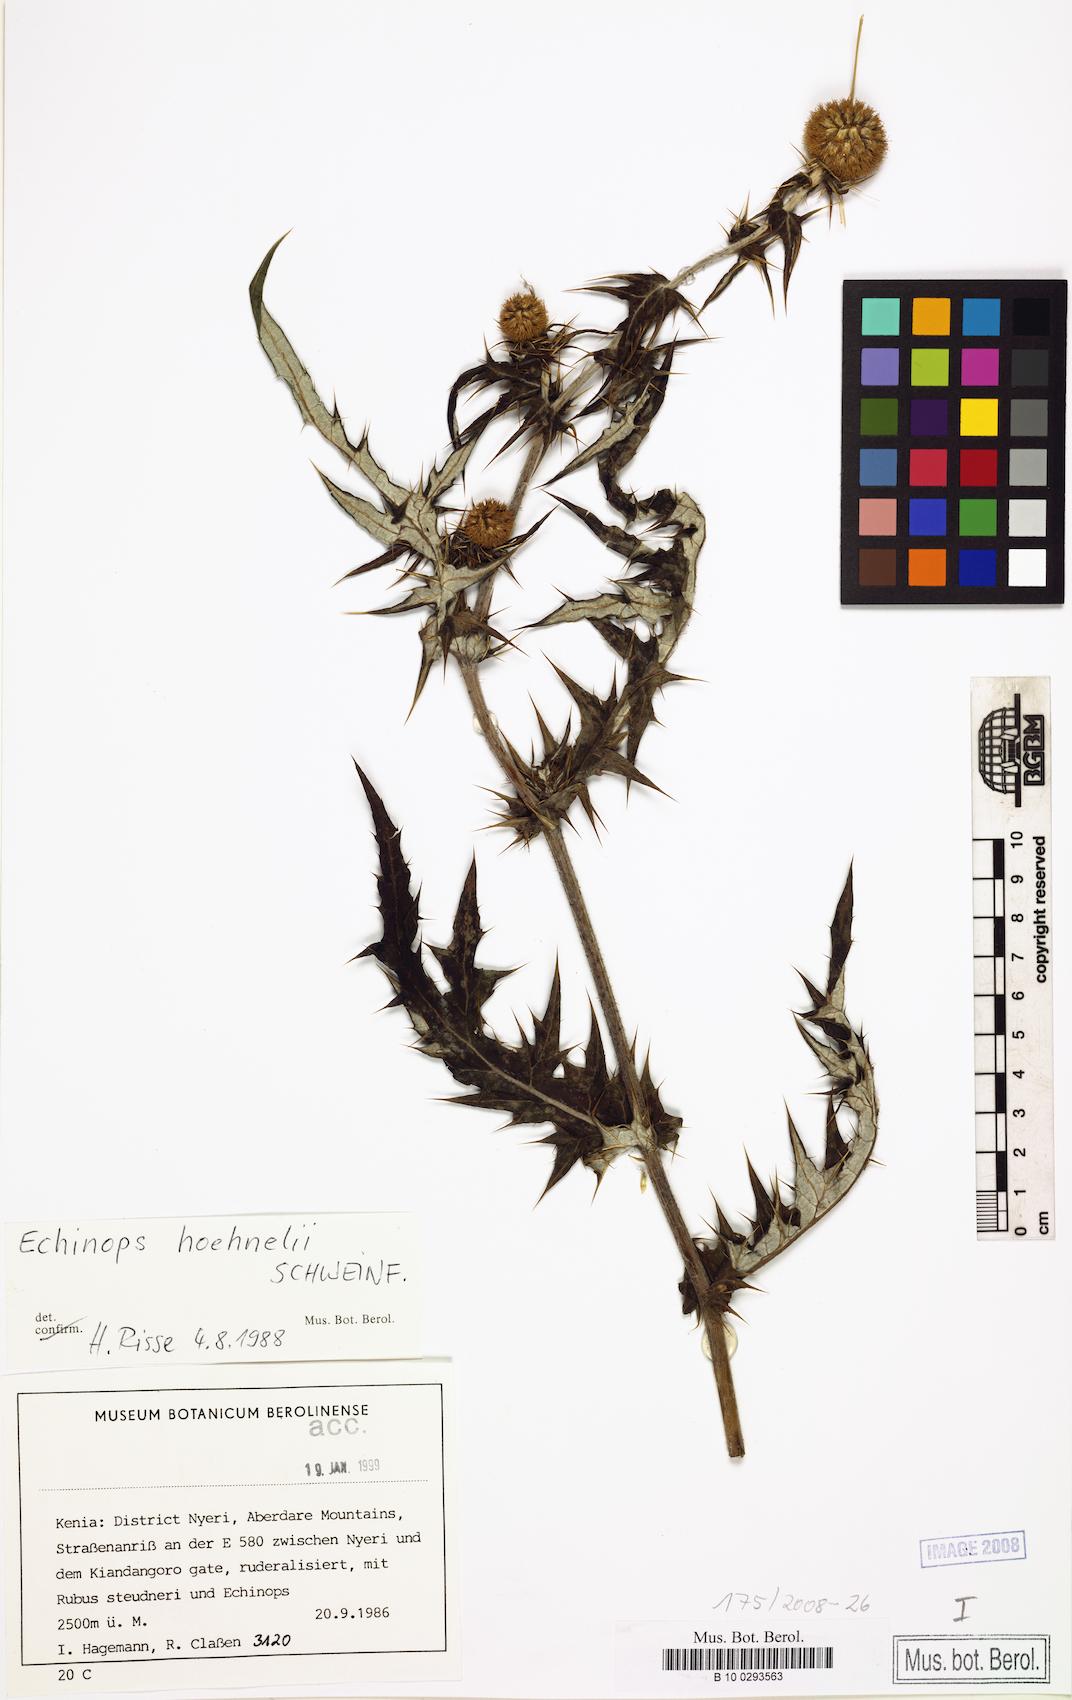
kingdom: Plantae
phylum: Tracheophyta
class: Magnoliopsida
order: Asterales
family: Asteraceae
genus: Echinops
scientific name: Echinops hoehnelii
